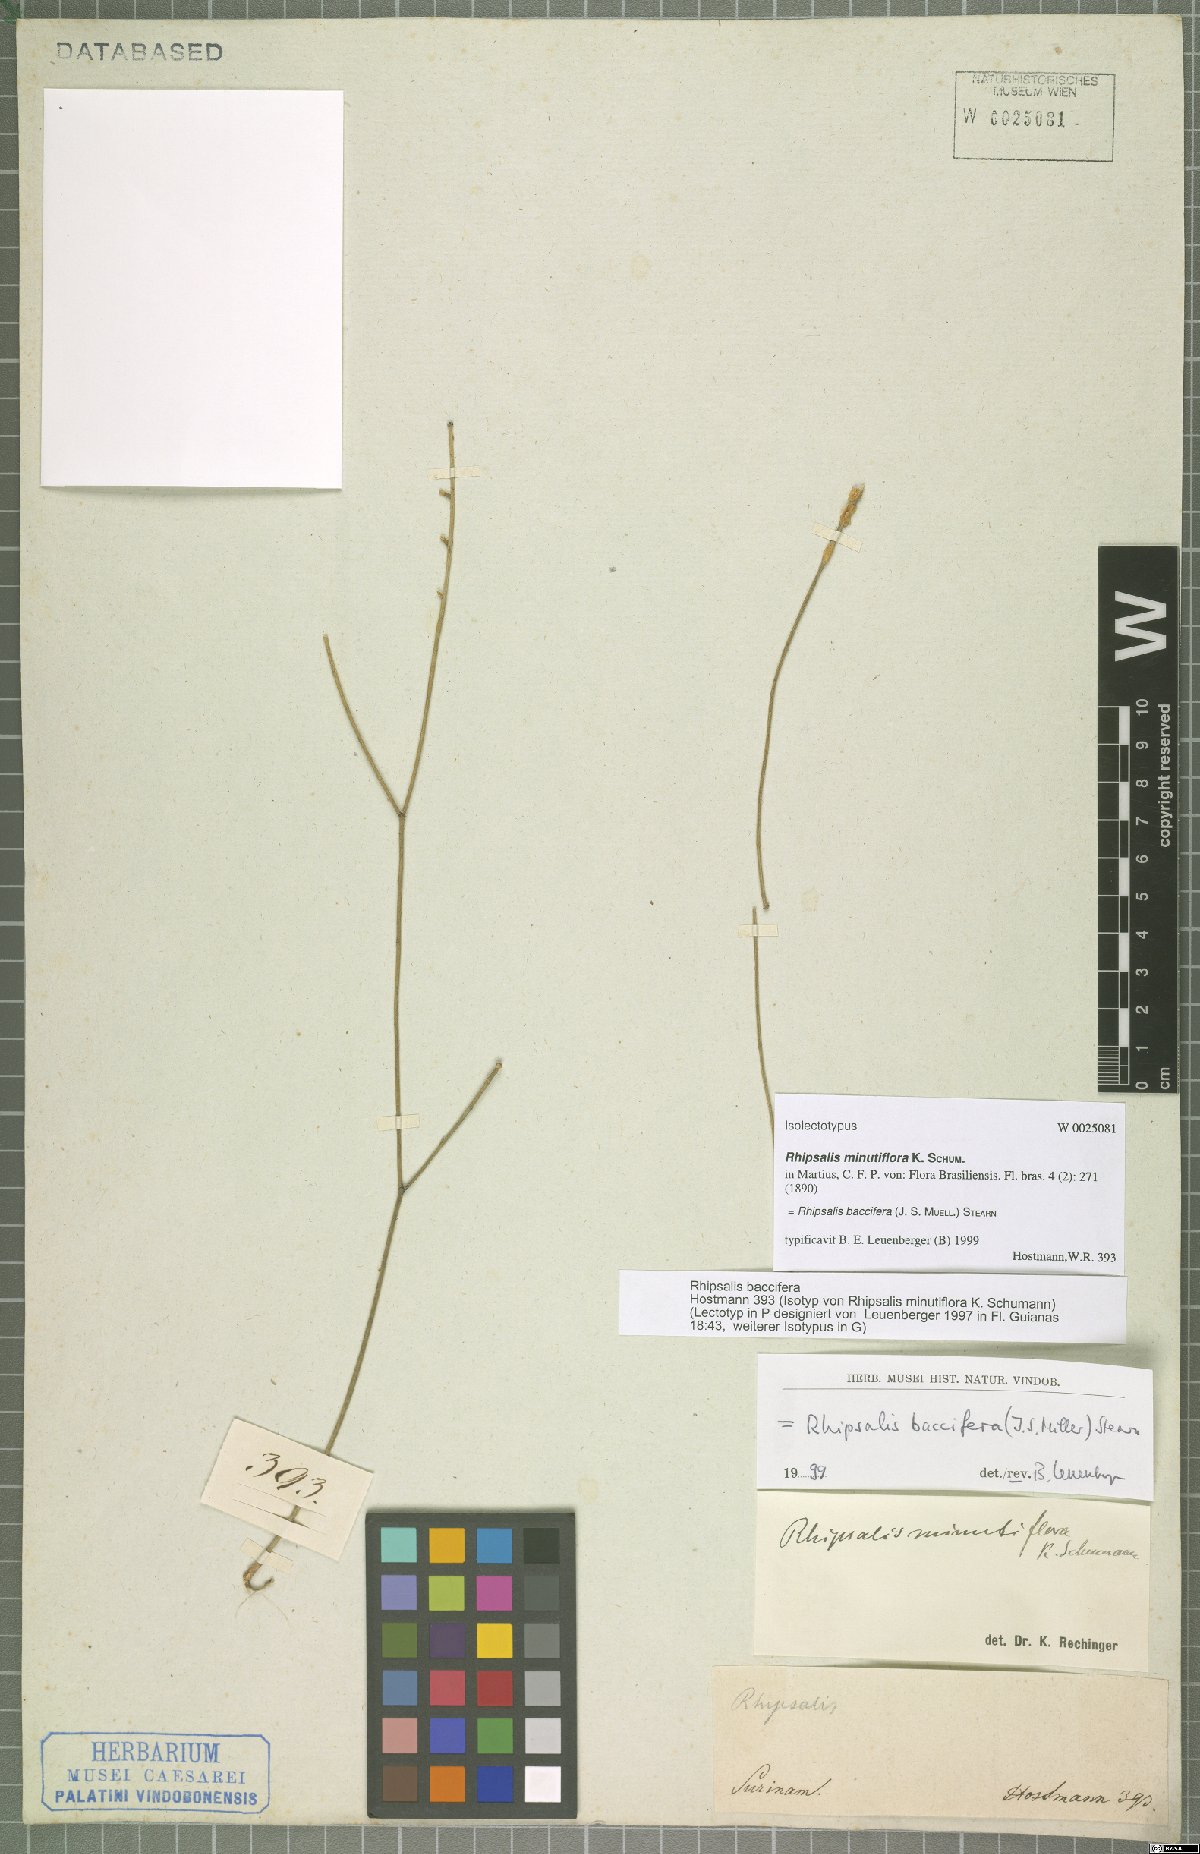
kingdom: Plantae
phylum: Tracheophyta
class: Magnoliopsida
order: Caryophyllales
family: Cactaceae
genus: Rhipsalis
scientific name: Rhipsalis baccifera
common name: Mistletoe cactus
